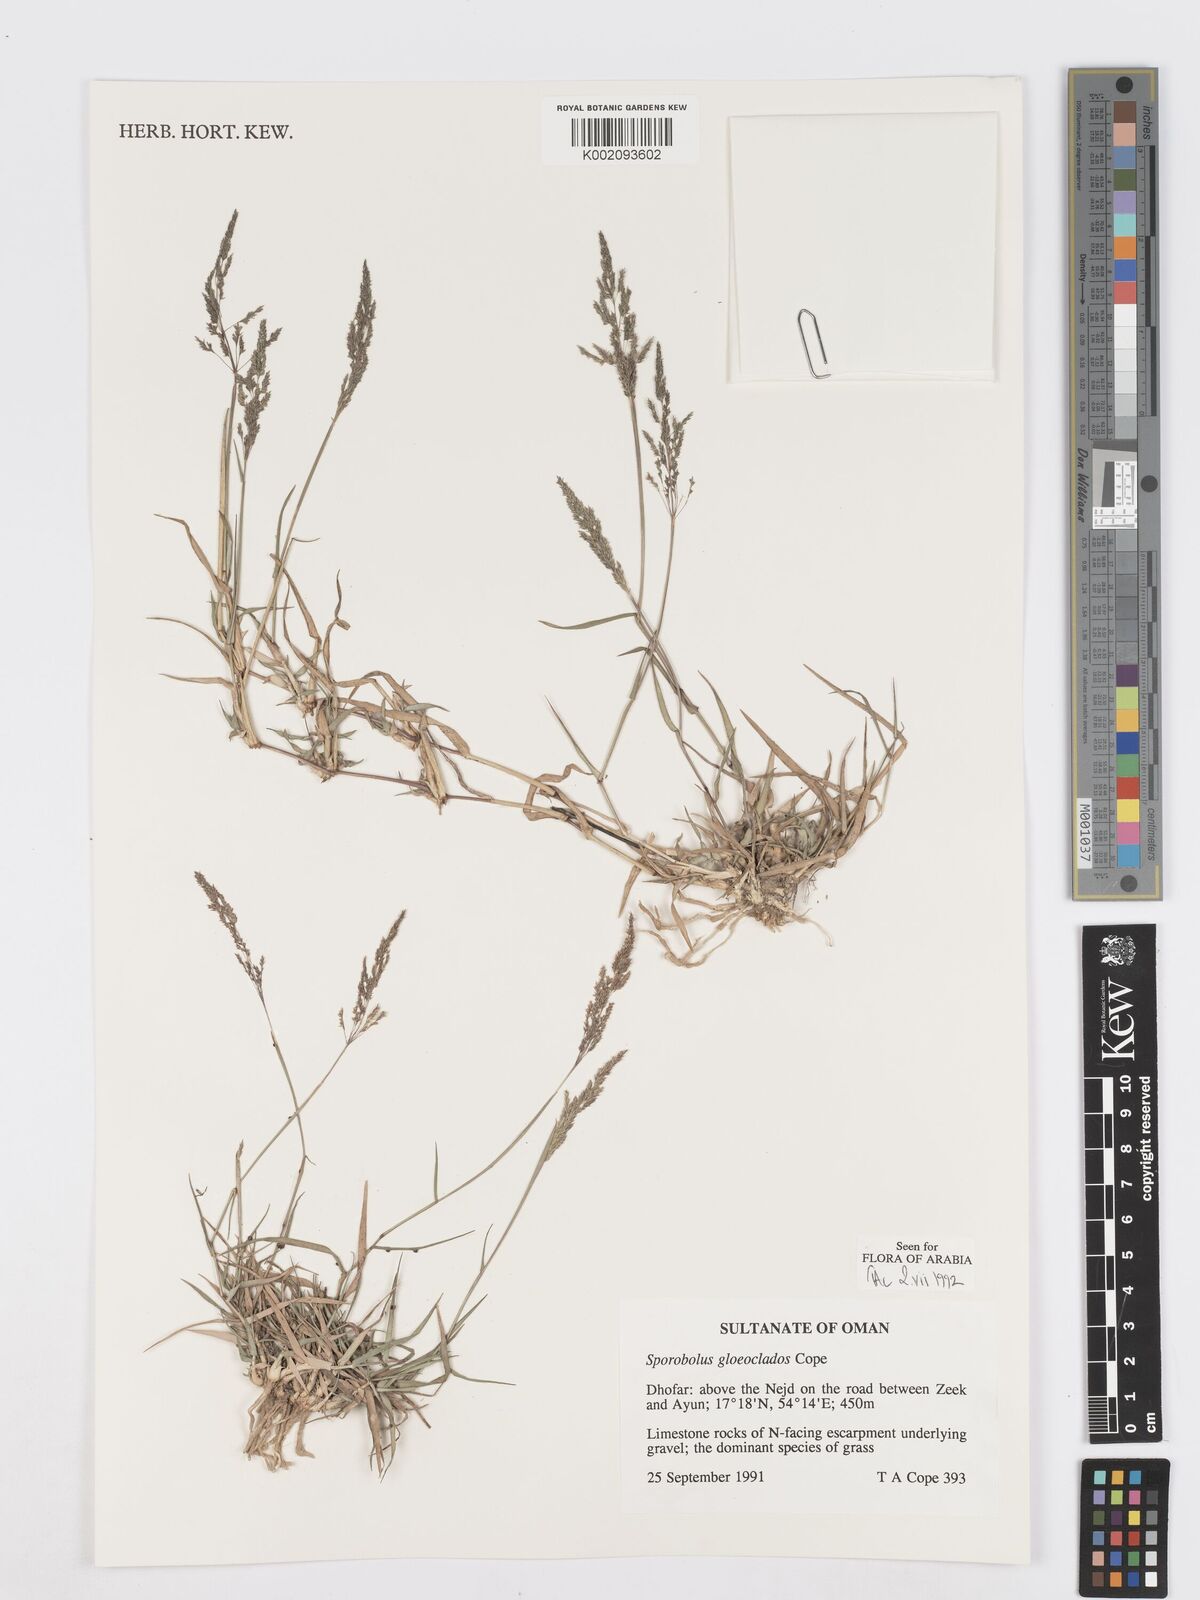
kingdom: Plantae
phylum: Tracheophyta
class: Liliopsida
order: Poales
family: Poaceae
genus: Sporobolus
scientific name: Sporobolus gloeoclados
